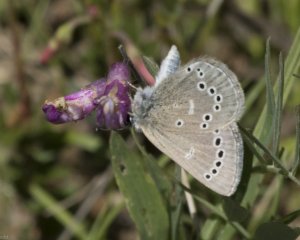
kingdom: Animalia
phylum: Arthropoda
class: Insecta
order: Lepidoptera
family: Lycaenidae
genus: Glaucopsyche
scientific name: Glaucopsyche lygdamus
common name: Silvery Blue
